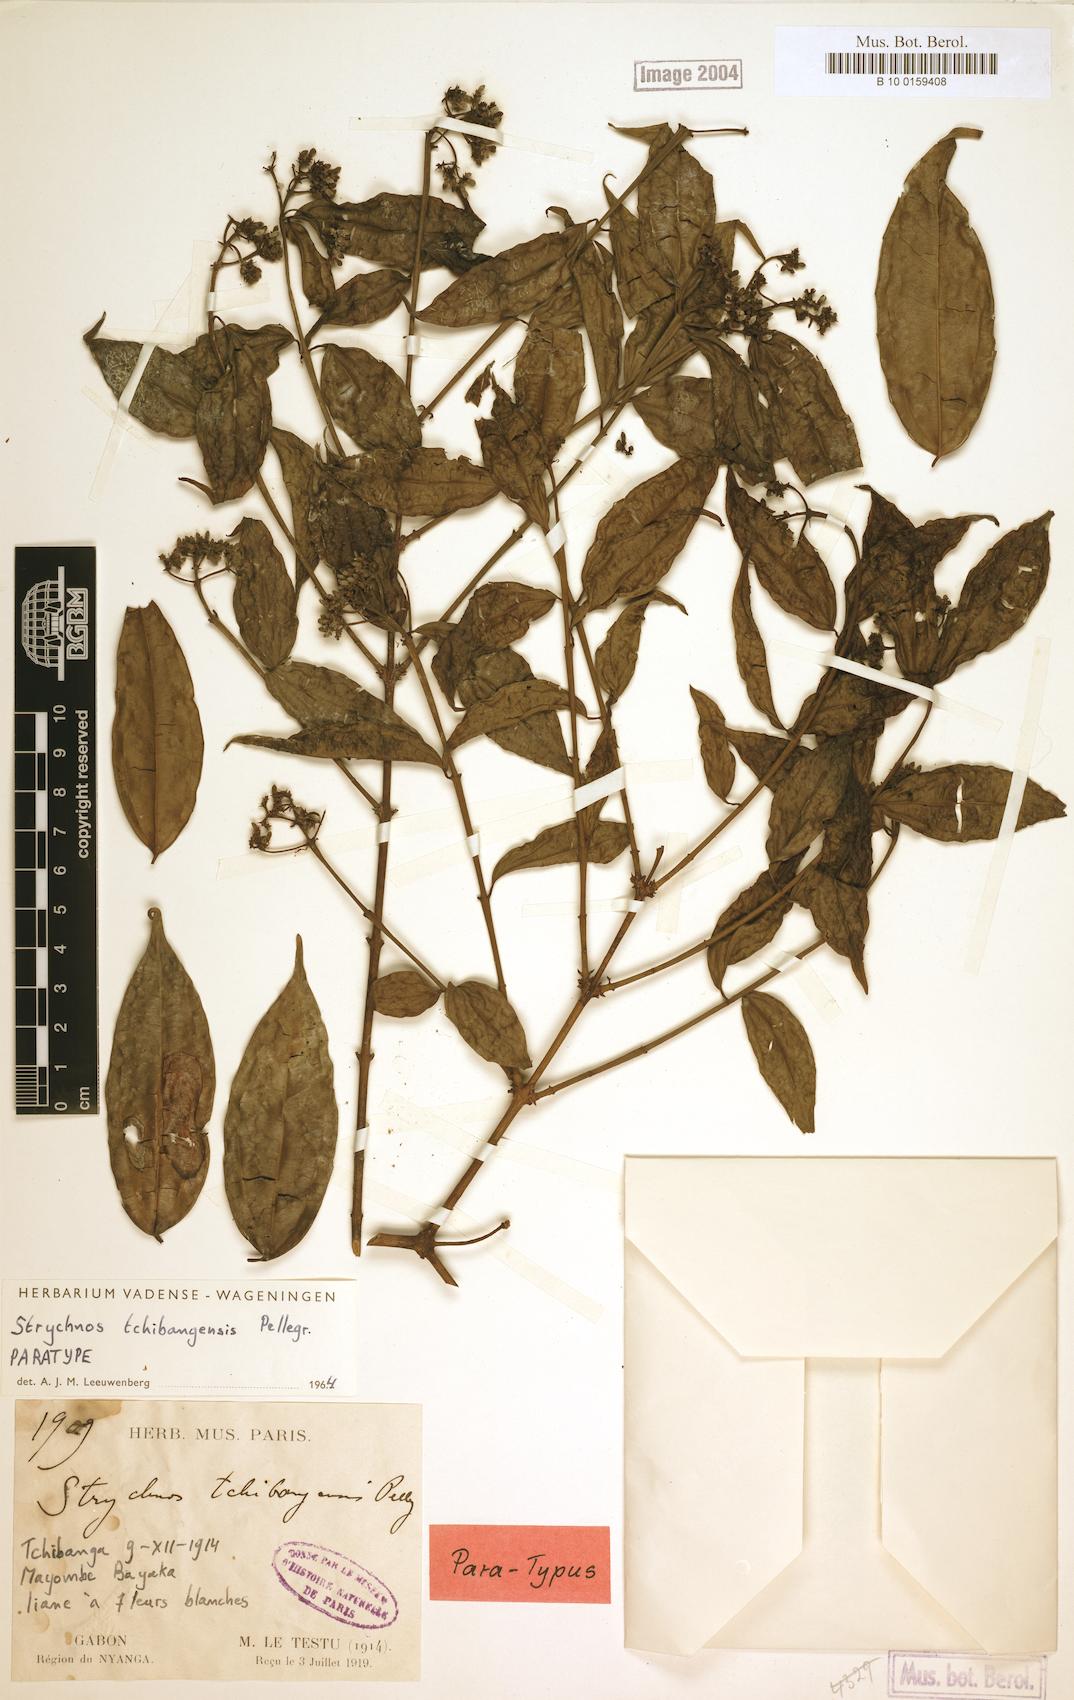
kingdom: Plantae
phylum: Tracheophyta
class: Magnoliopsida
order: Gentianales
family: Loganiaceae
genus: Strychnos
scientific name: Strychnos tchibangensis
